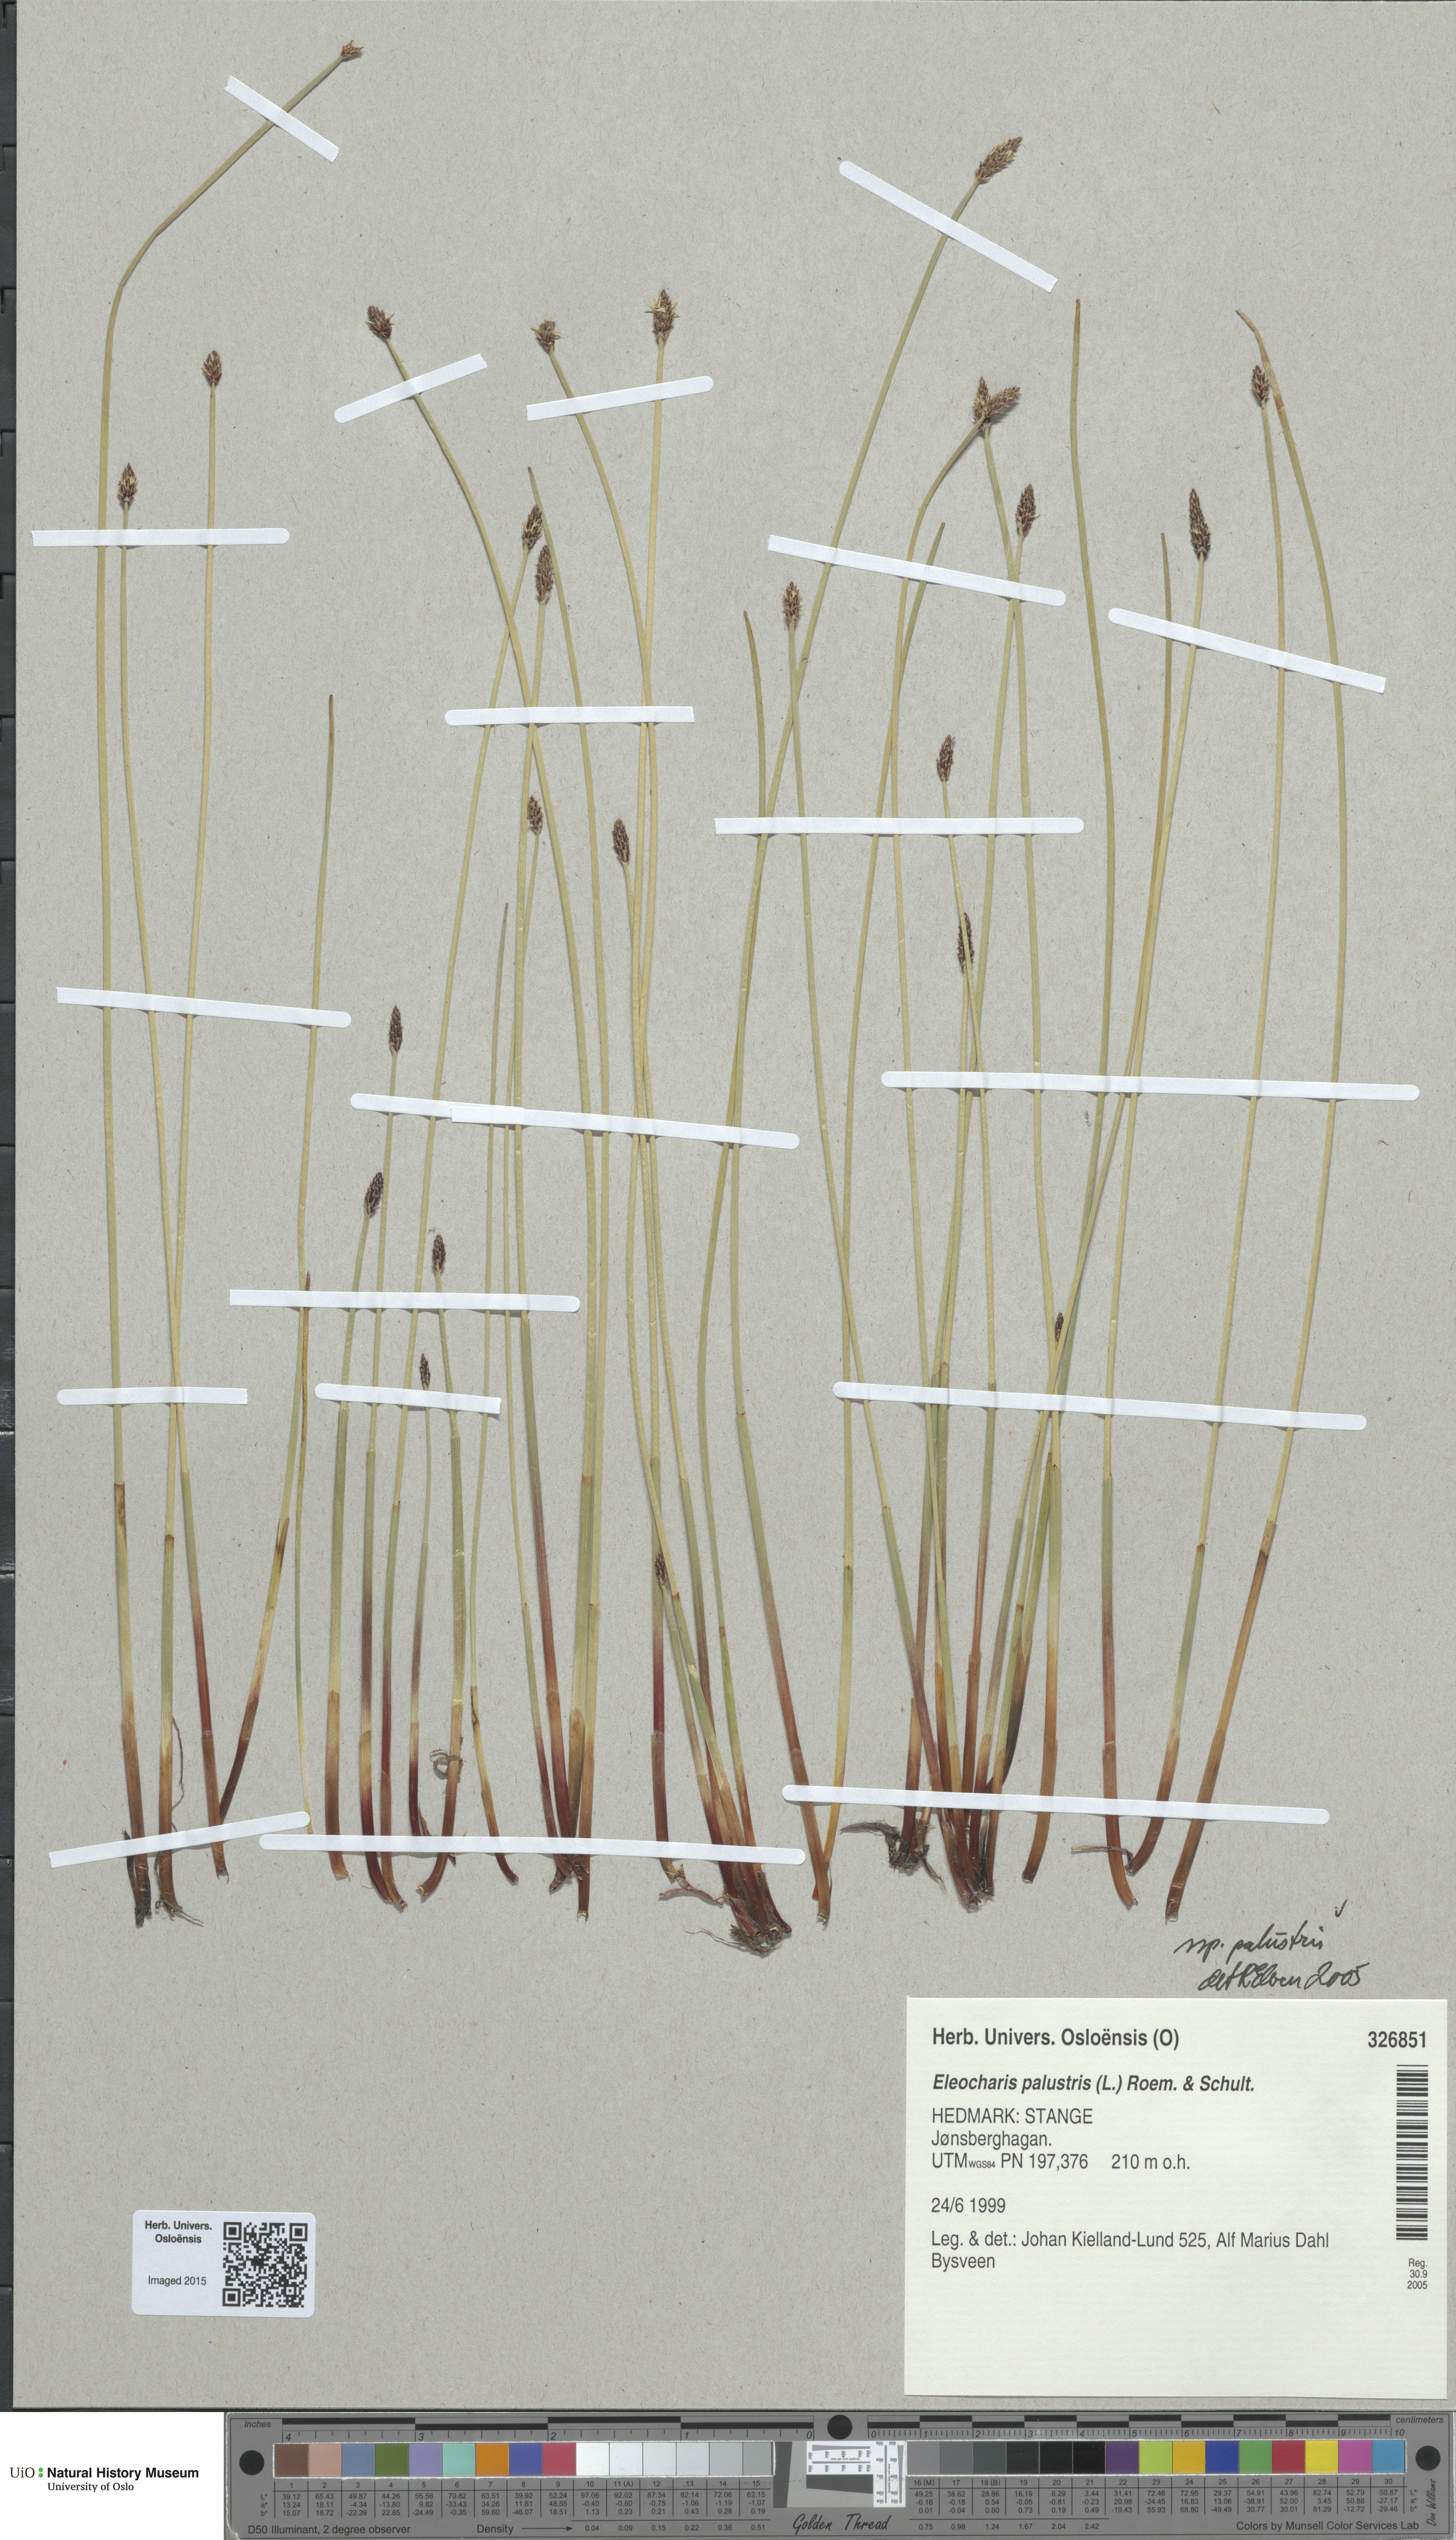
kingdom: Plantae
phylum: Tracheophyta
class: Liliopsida
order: Poales
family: Cyperaceae
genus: Eleocharis
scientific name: Eleocharis palustris
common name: Common spike-rush
